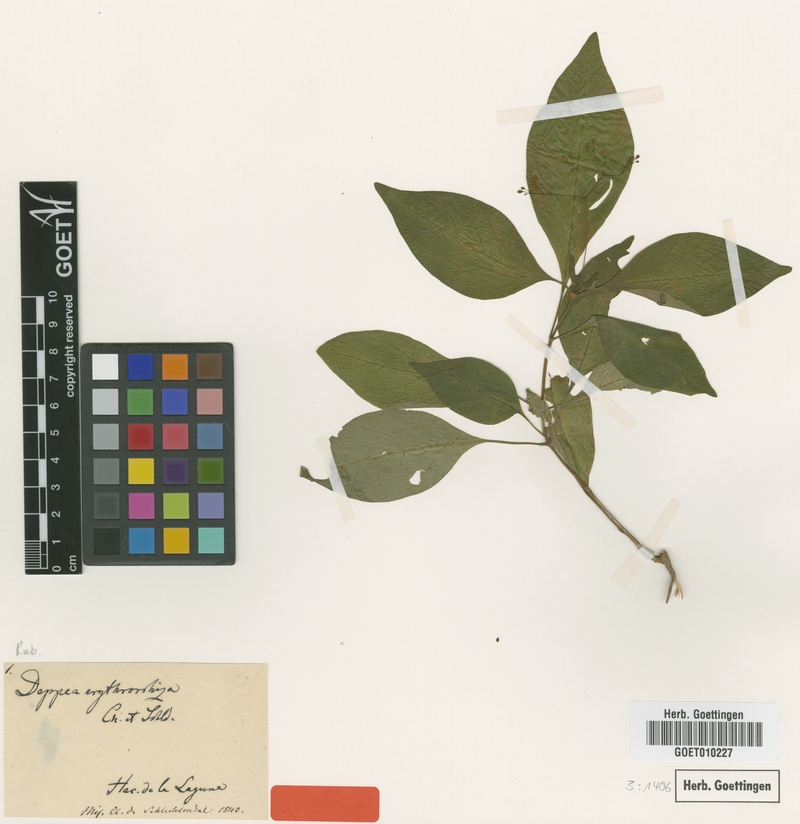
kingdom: Plantae
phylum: Tracheophyta
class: Magnoliopsida
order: Gentianales
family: Rubiaceae
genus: Deppea
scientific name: Deppea erythrorhiza
